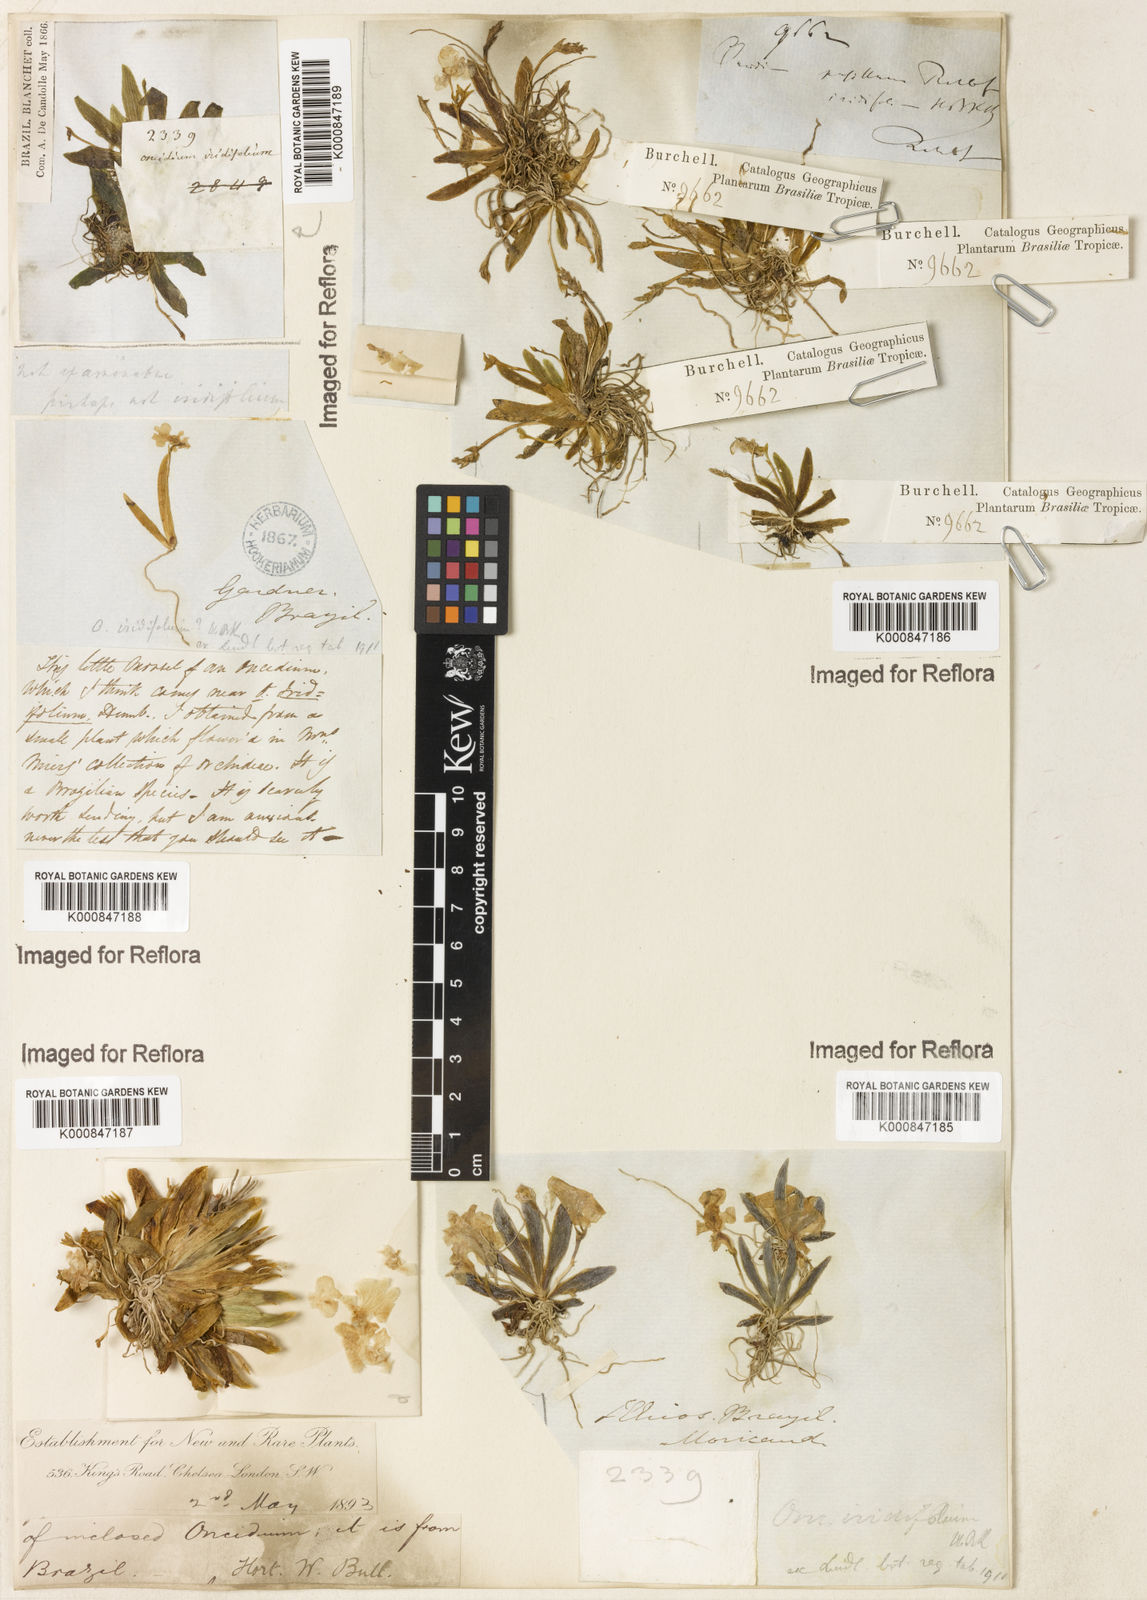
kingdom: Plantae
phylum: Tracheophyta
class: Liliopsida
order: Asparagales
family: Orchidaceae
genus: Oncidium
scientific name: Oncidium
